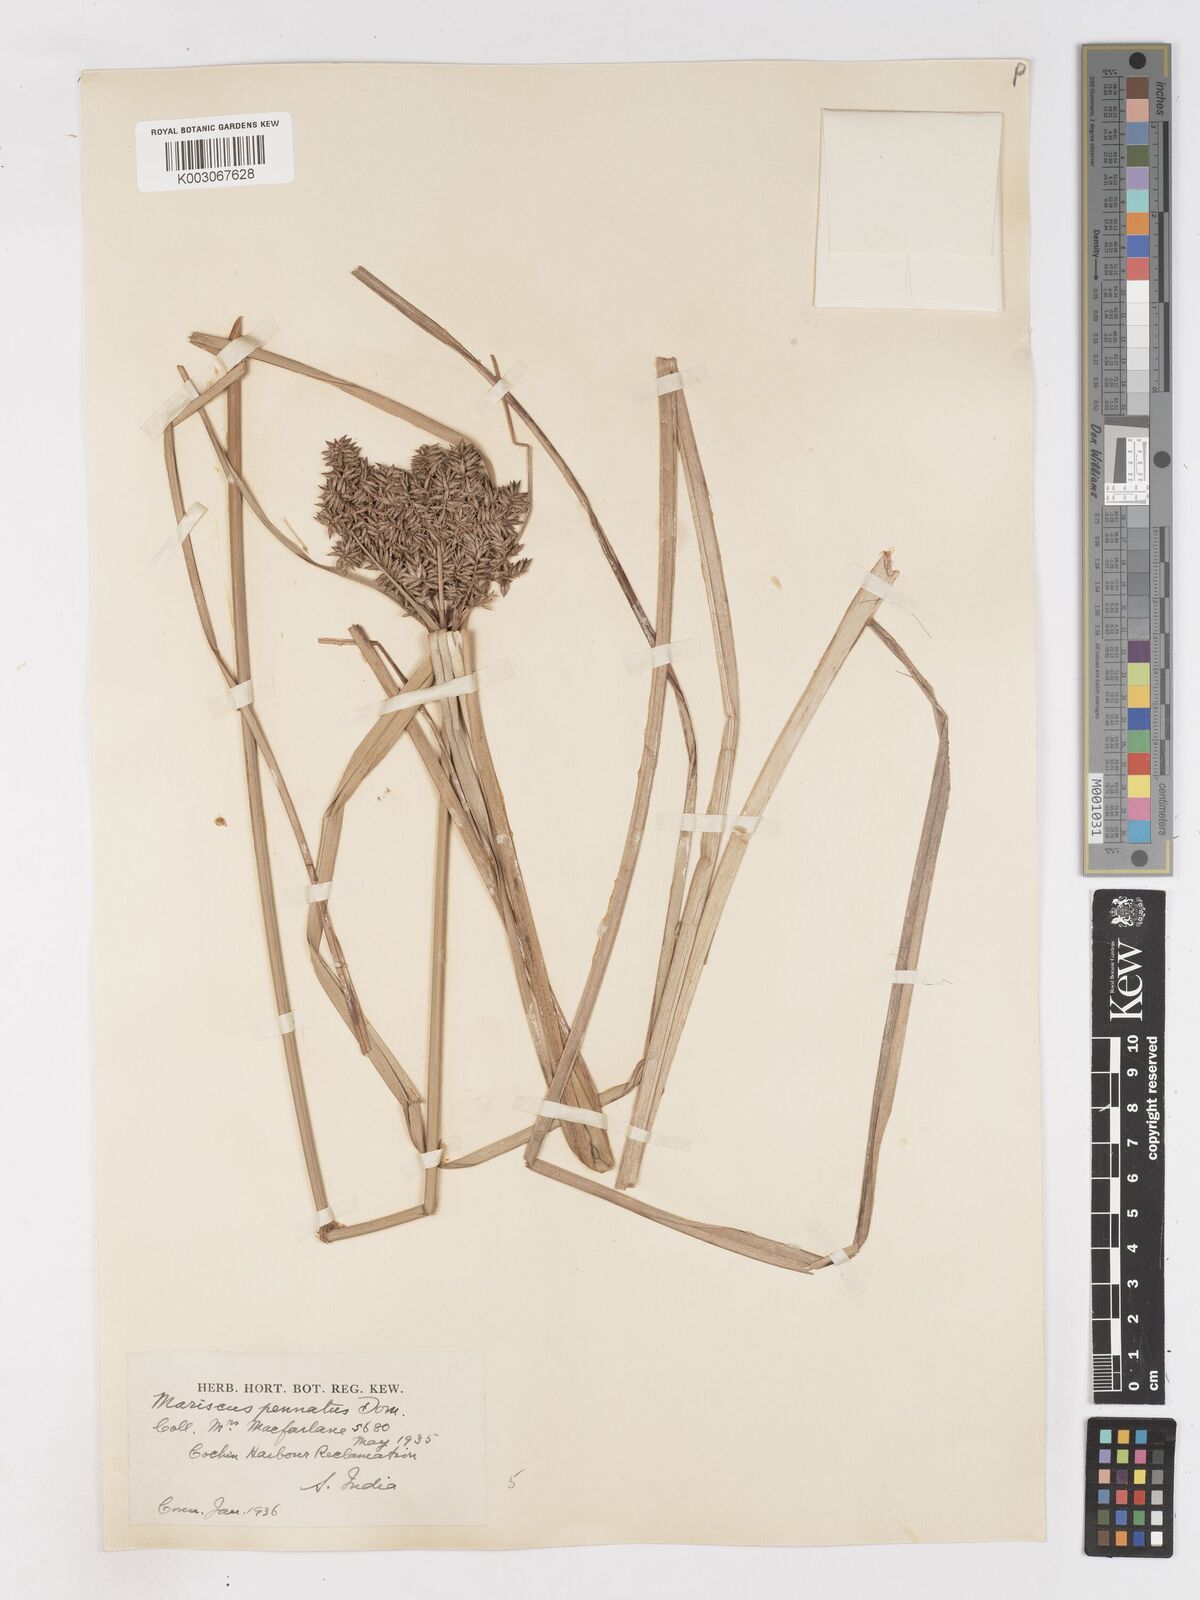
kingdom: Plantae
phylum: Tracheophyta
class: Liliopsida
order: Poales
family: Cyperaceae
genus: Cyperus
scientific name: Cyperus javanicus
